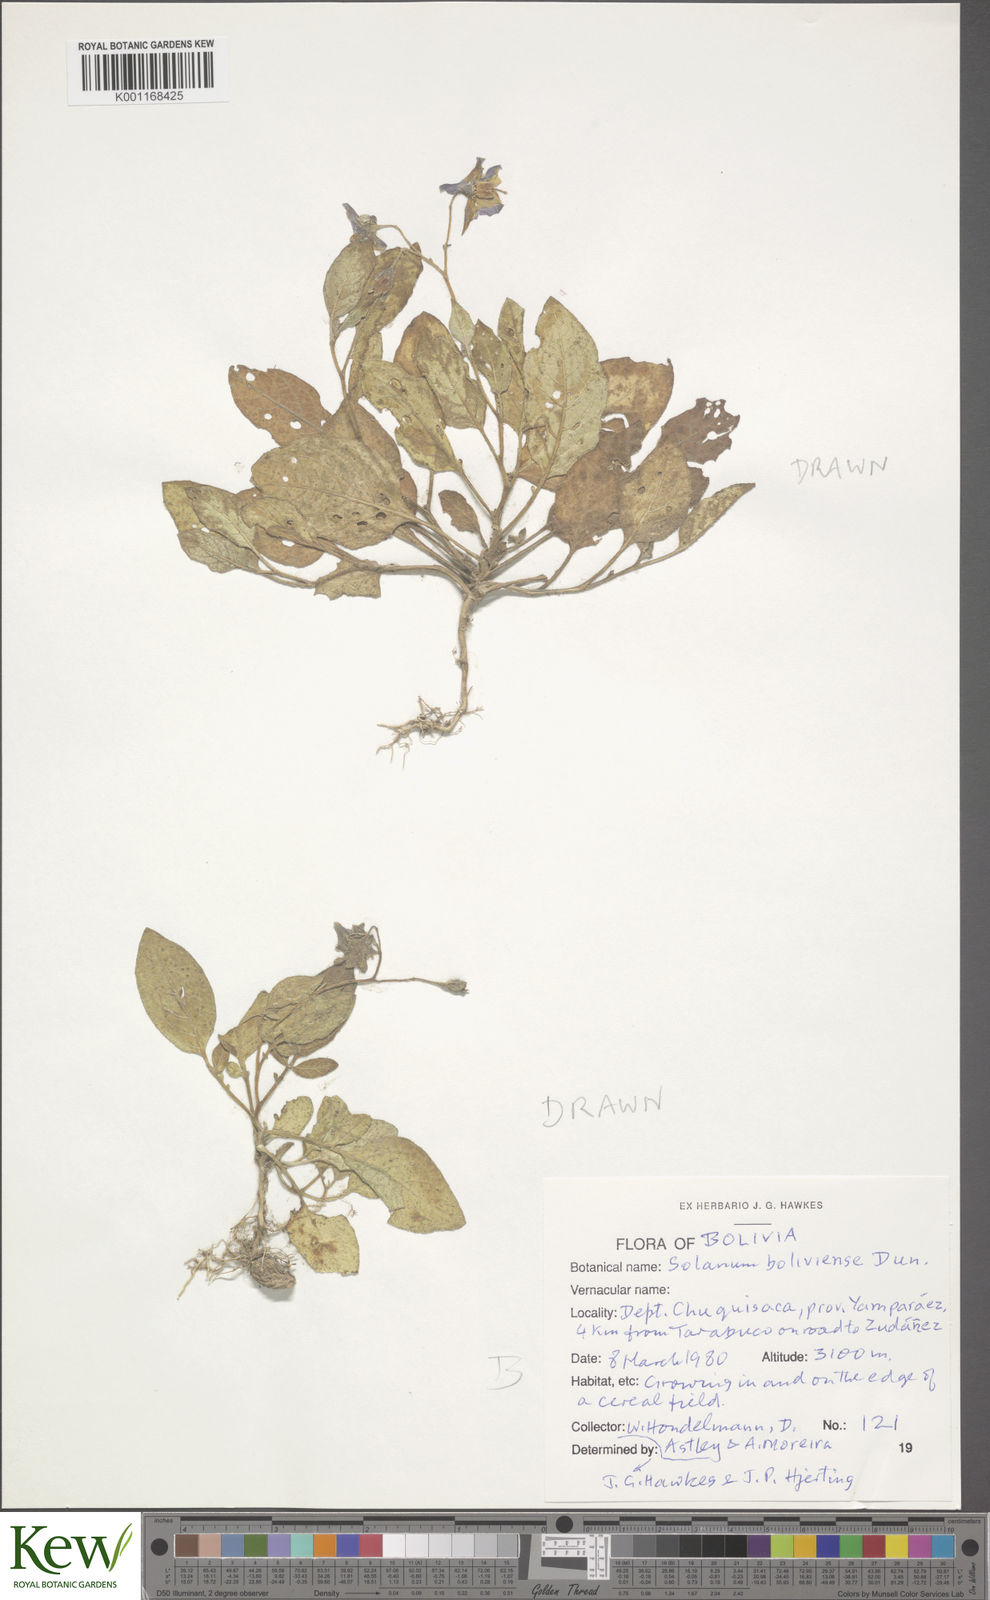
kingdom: Plantae
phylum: Tracheophyta
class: Magnoliopsida
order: Solanales
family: Solanaceae
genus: Solanum
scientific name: Solanum boliviense
